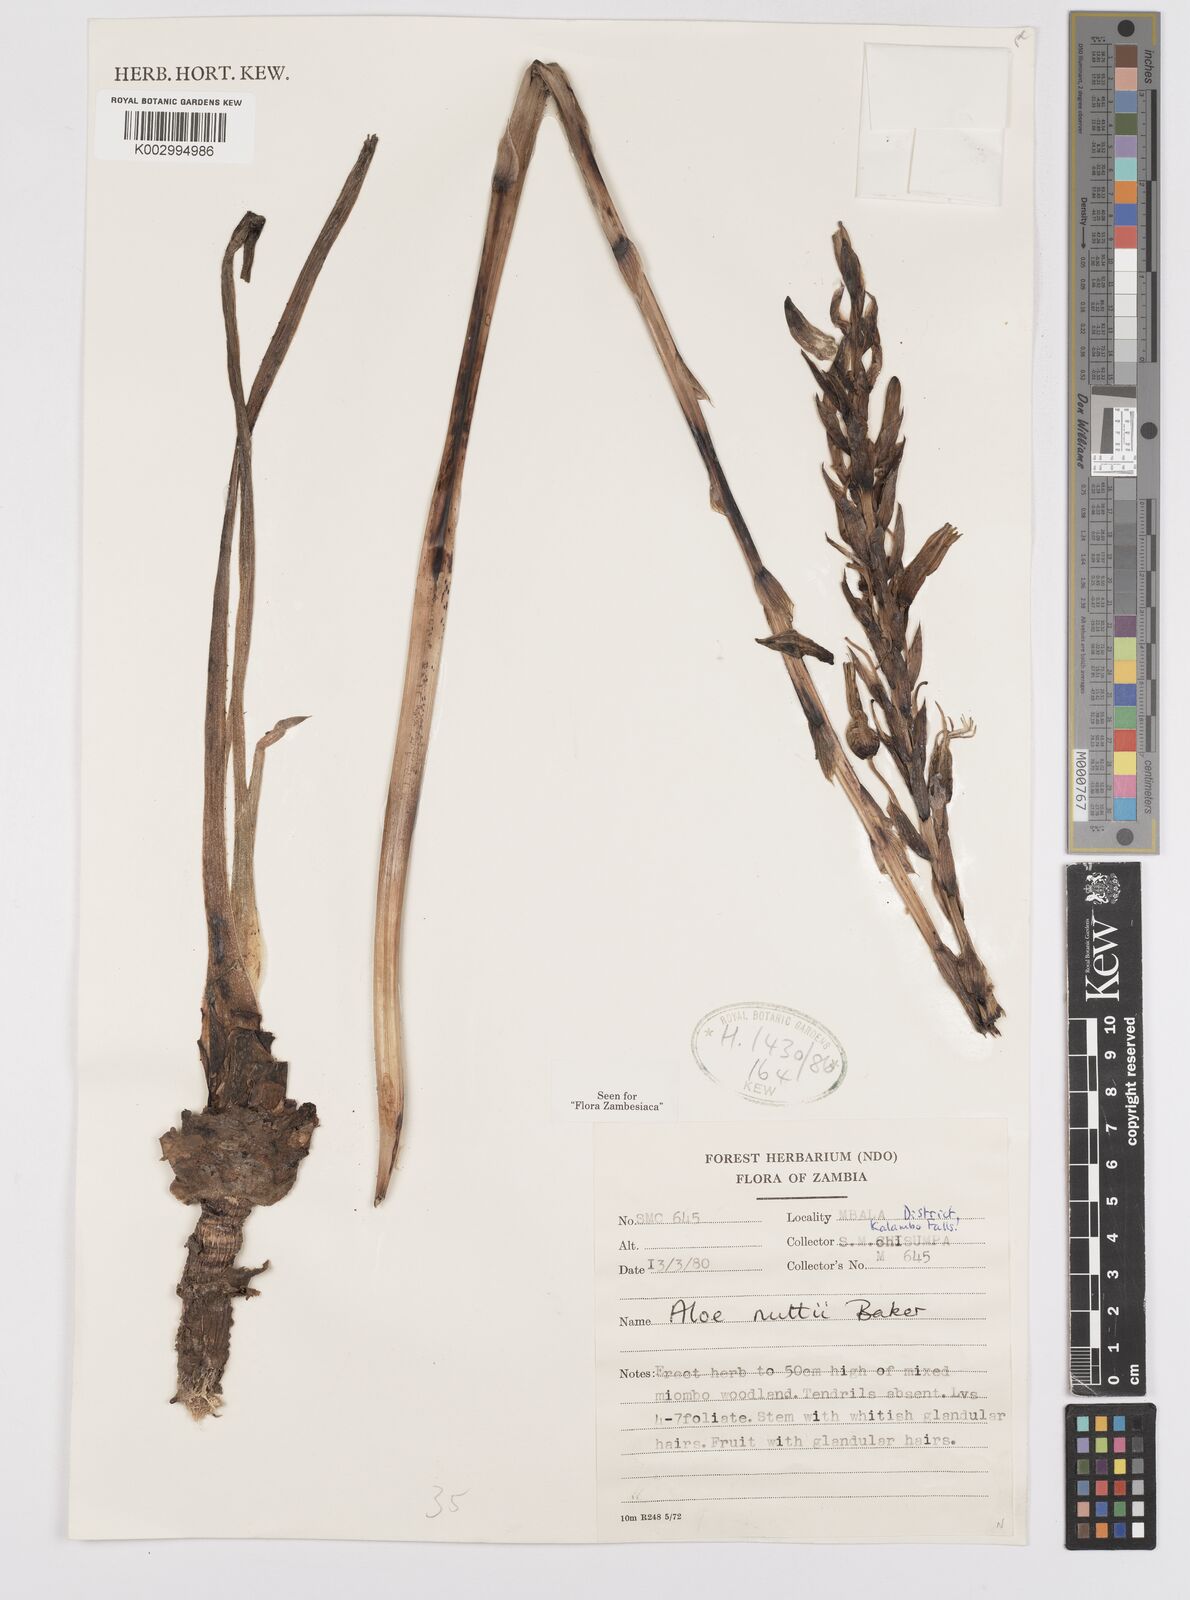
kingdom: Plantae
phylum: Tracheophyta
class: Liliopsida
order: Asparagales
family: Asphodelaceae
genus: Aloe
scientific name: Aloe nuttii
